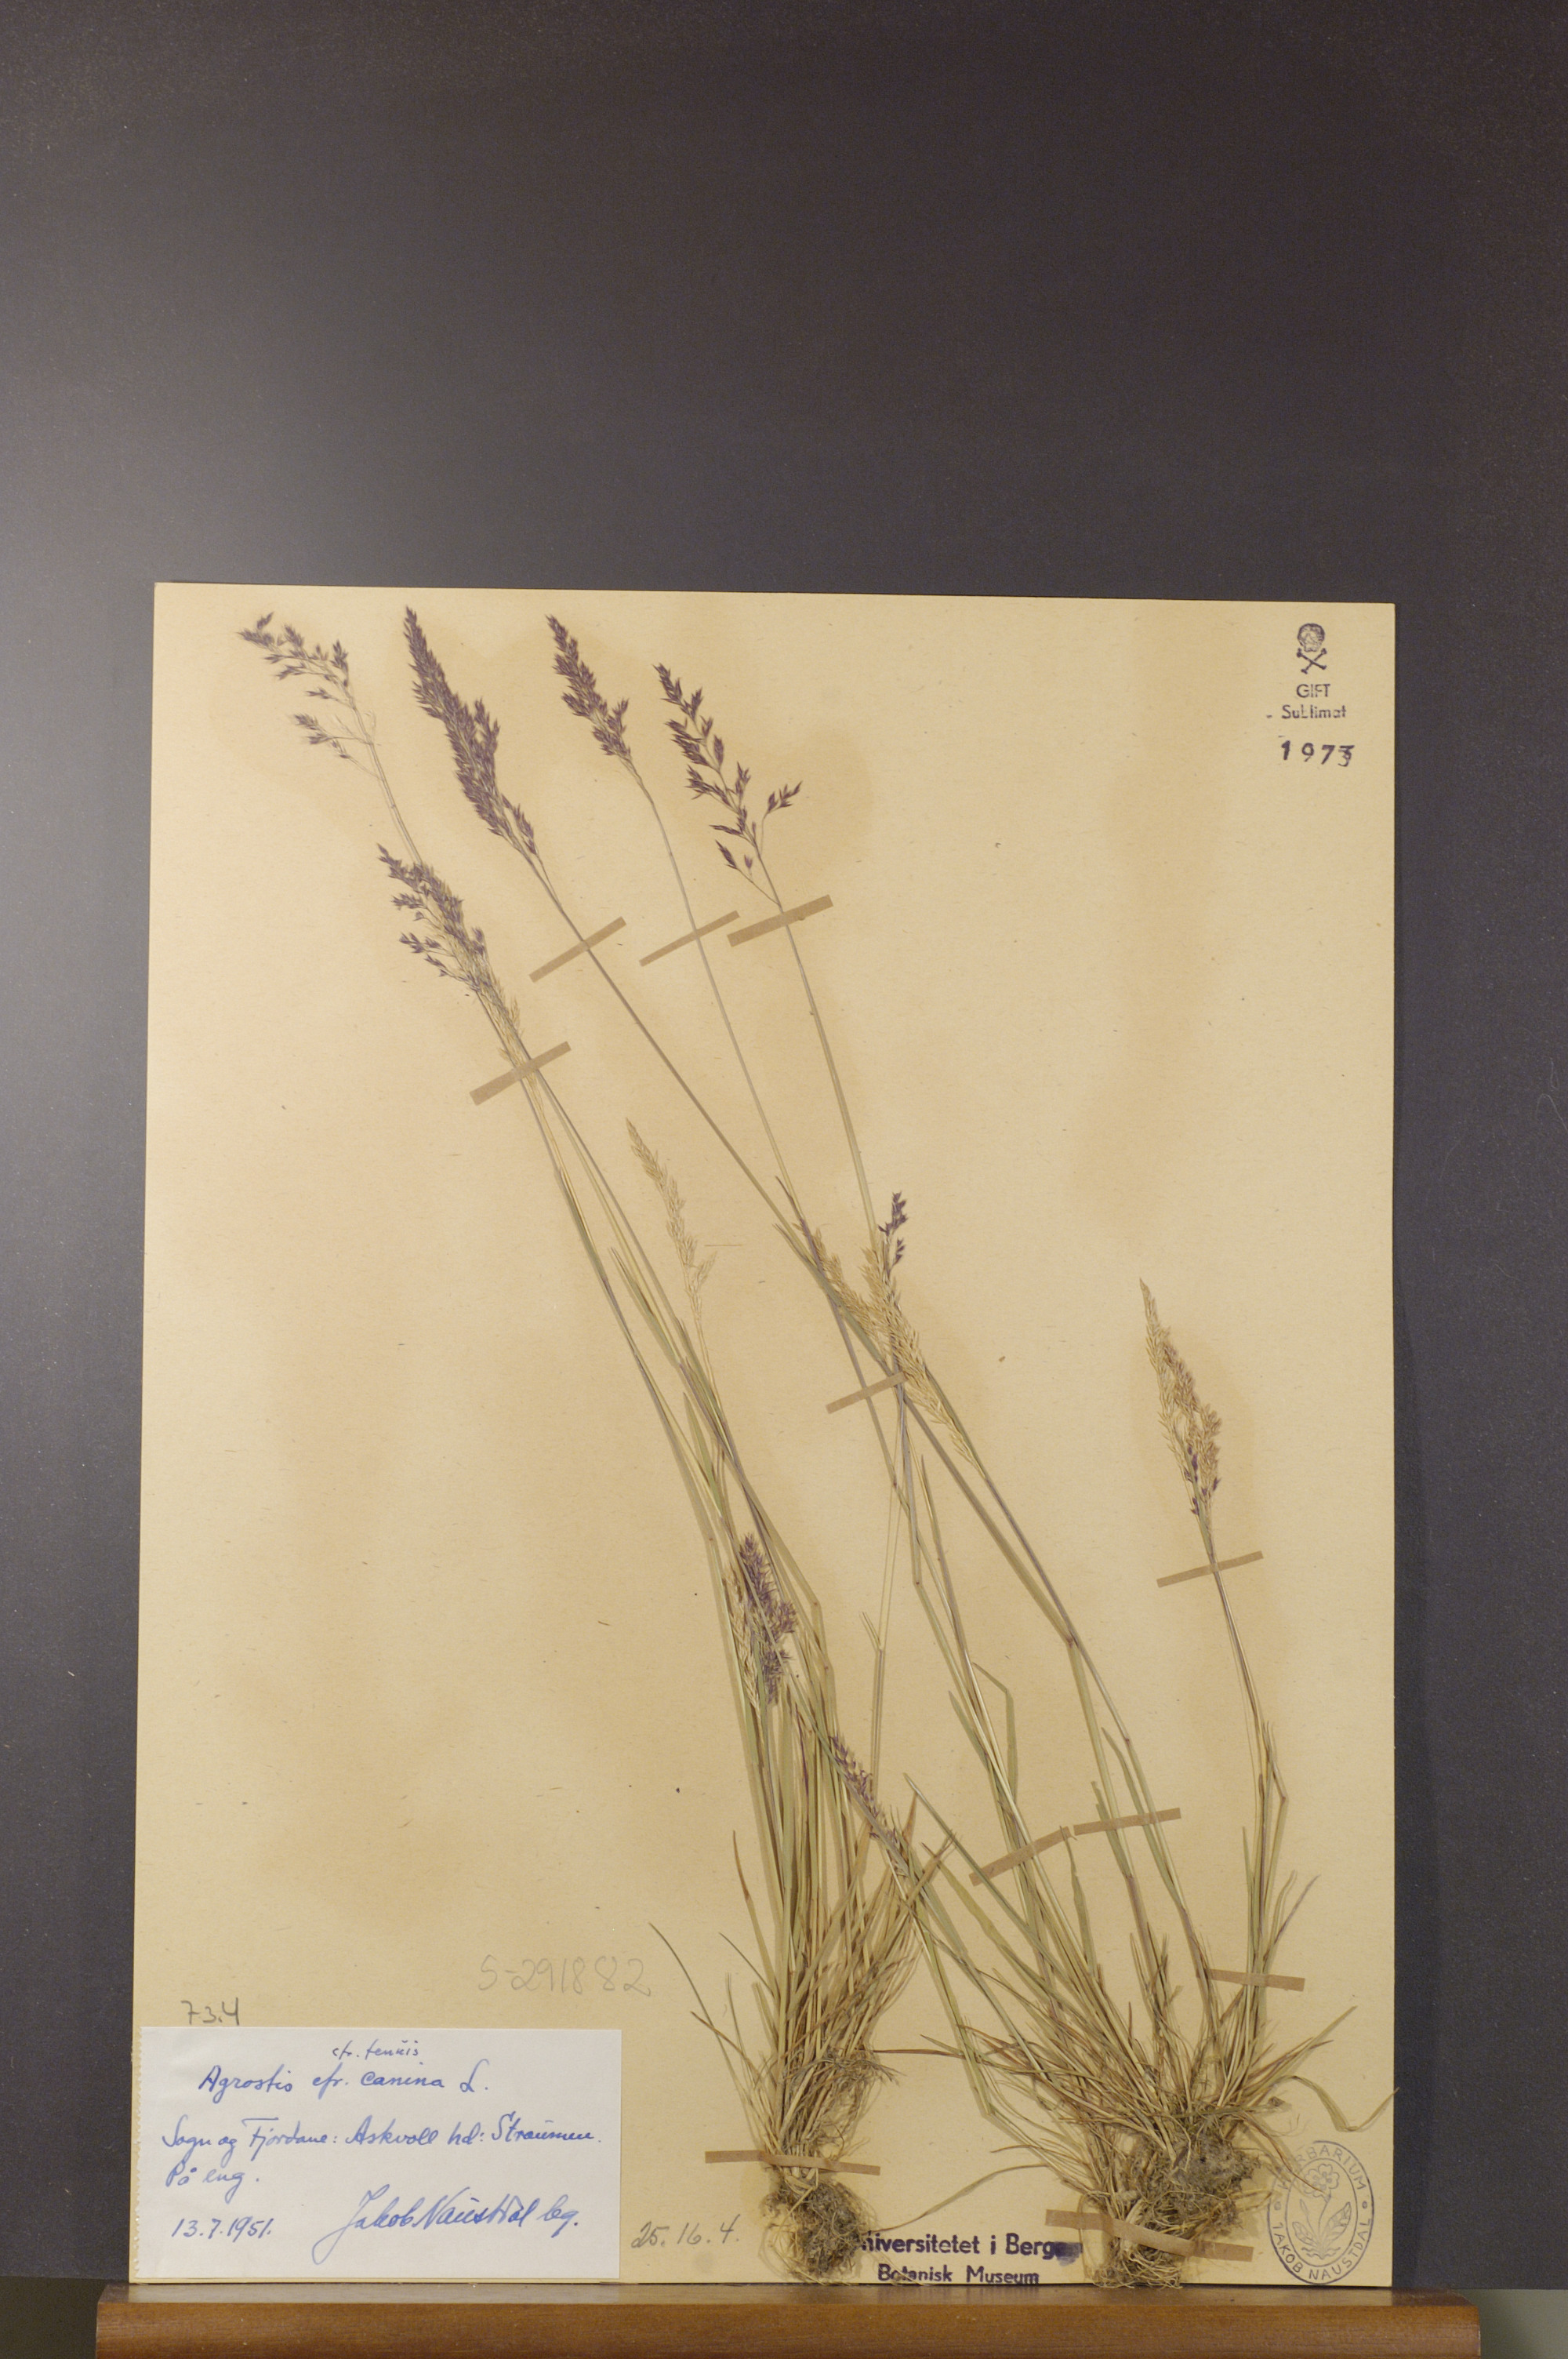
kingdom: Plantae
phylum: Tracheophyta
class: Liliopsida
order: Poales
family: Poaceae
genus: Agrostis
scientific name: Agrostis canina
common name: Velvet bent
